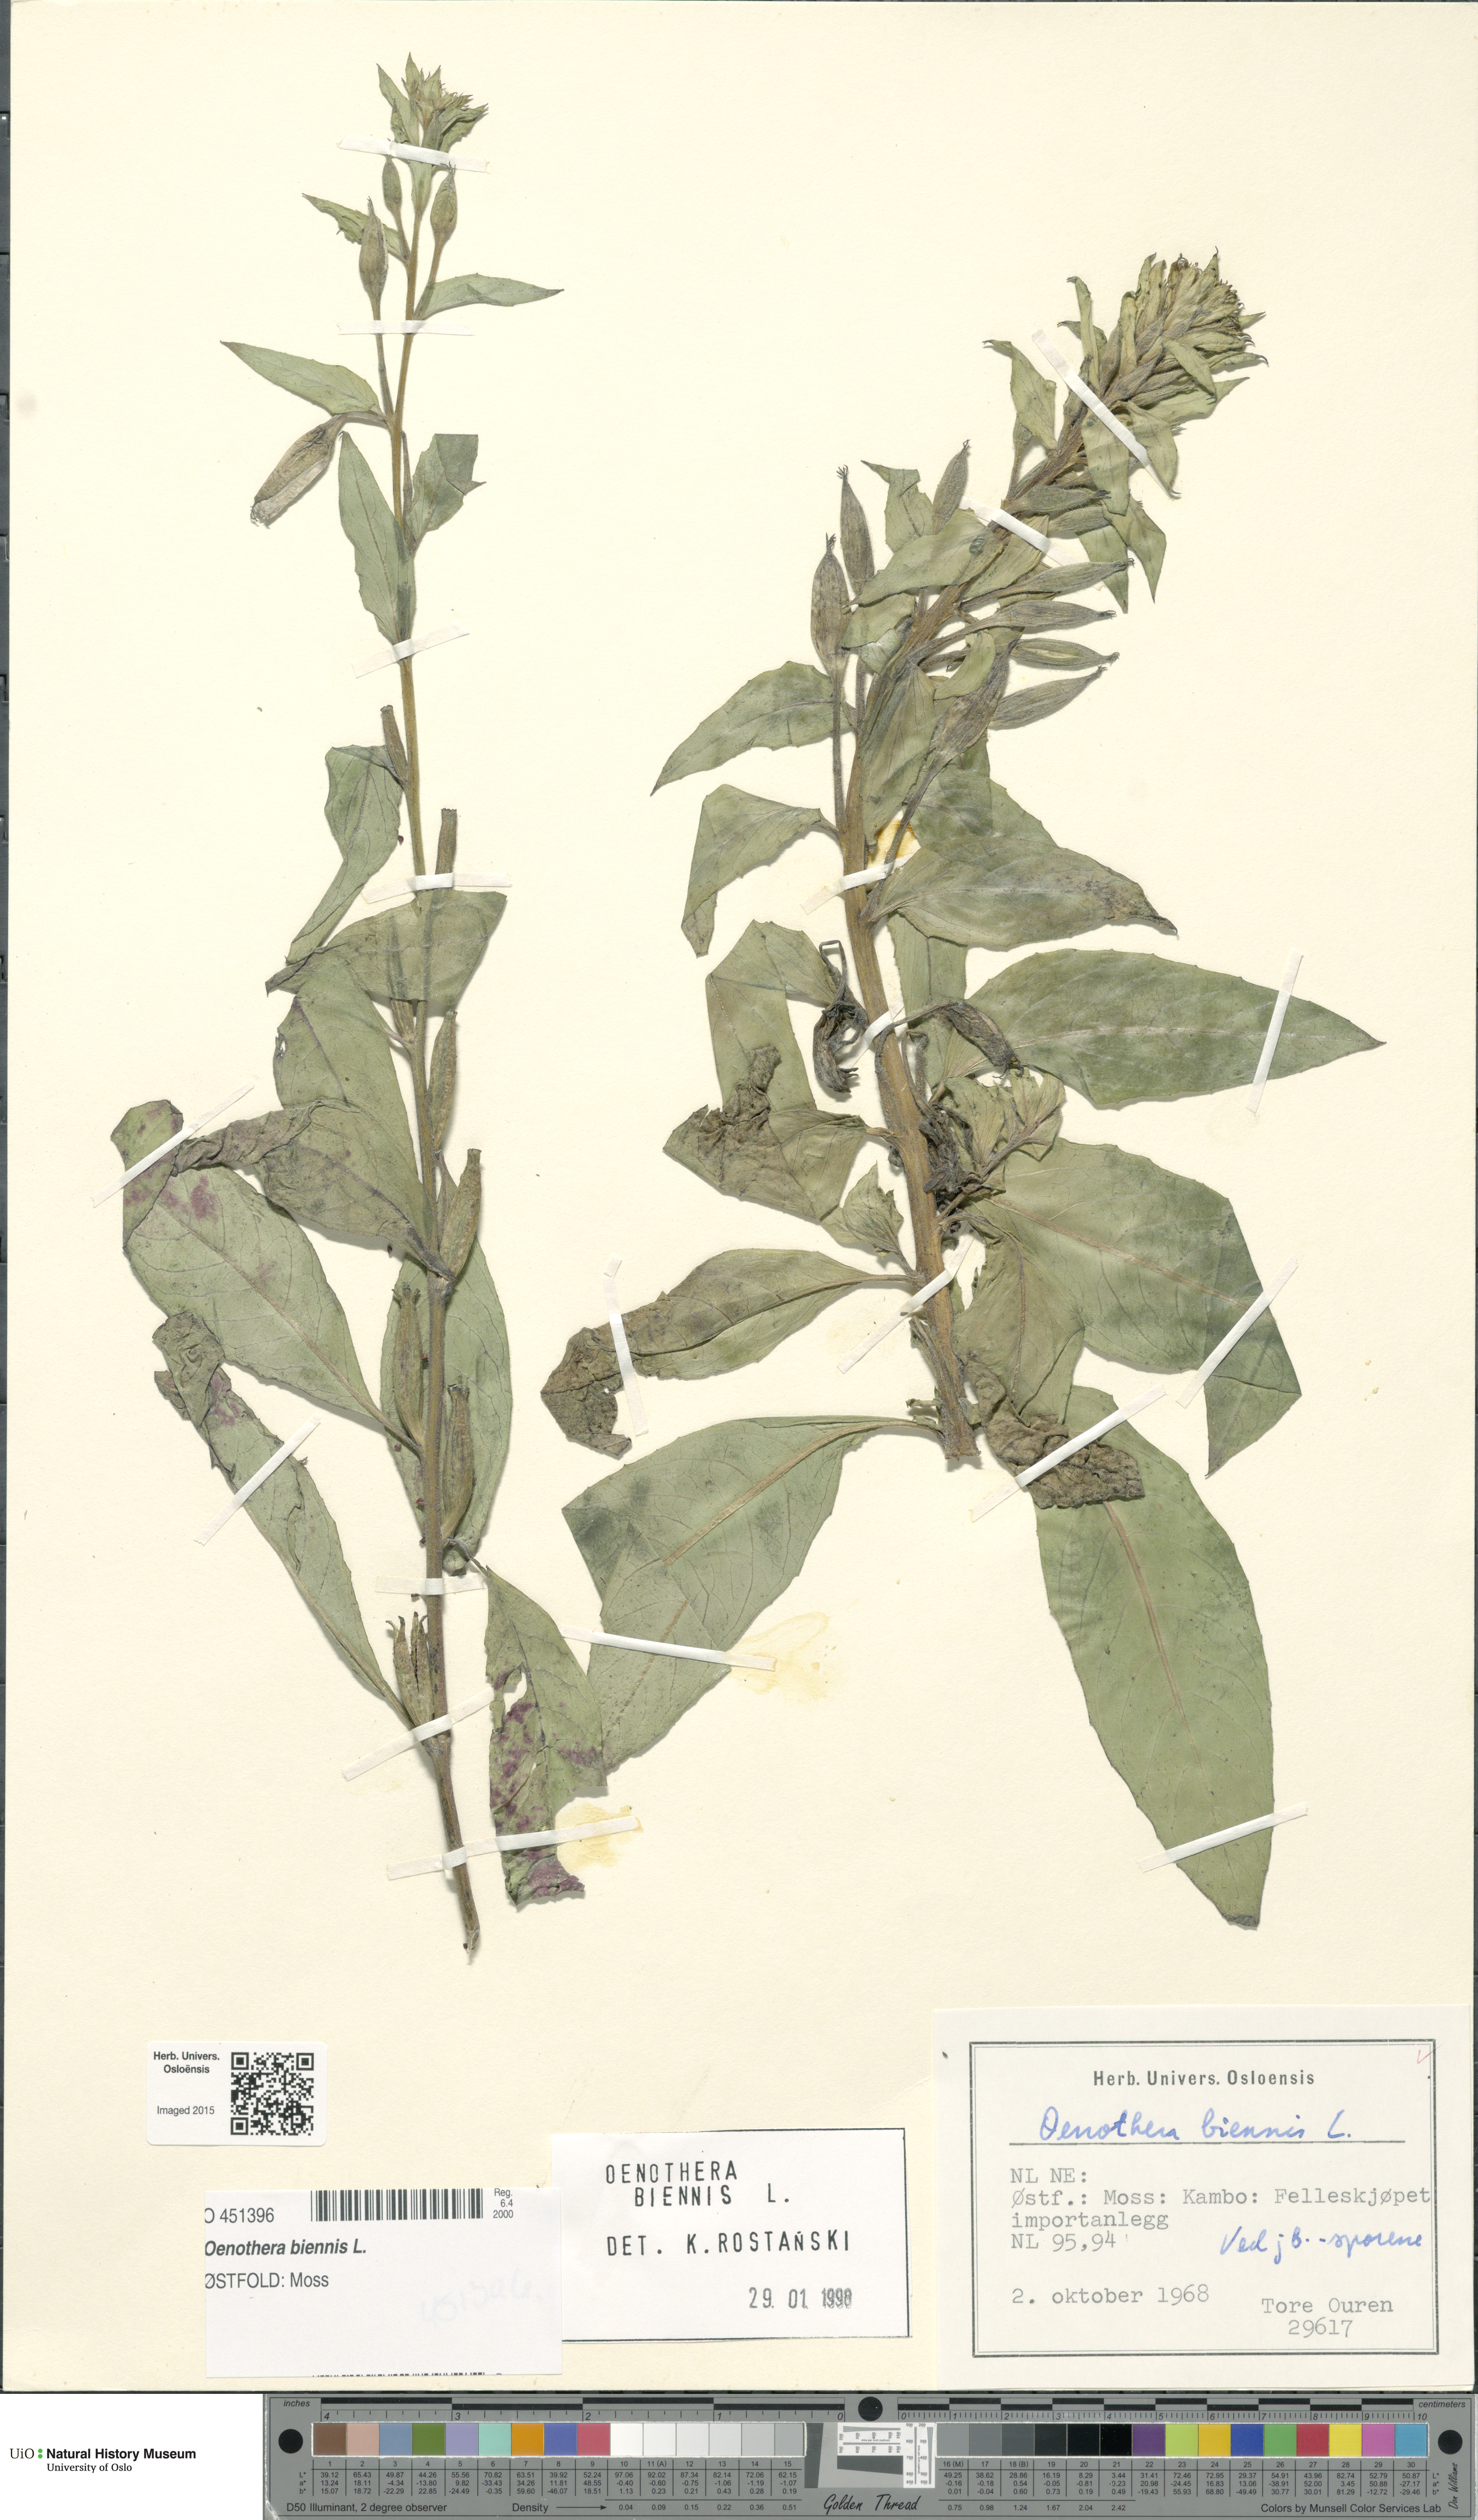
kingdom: Plantae
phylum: Tracheophyta
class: Magnoliopsida
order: Myrtales
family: Onagraceae
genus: Oenothera
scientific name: Oenothera biennis
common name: Common evening-primrose
